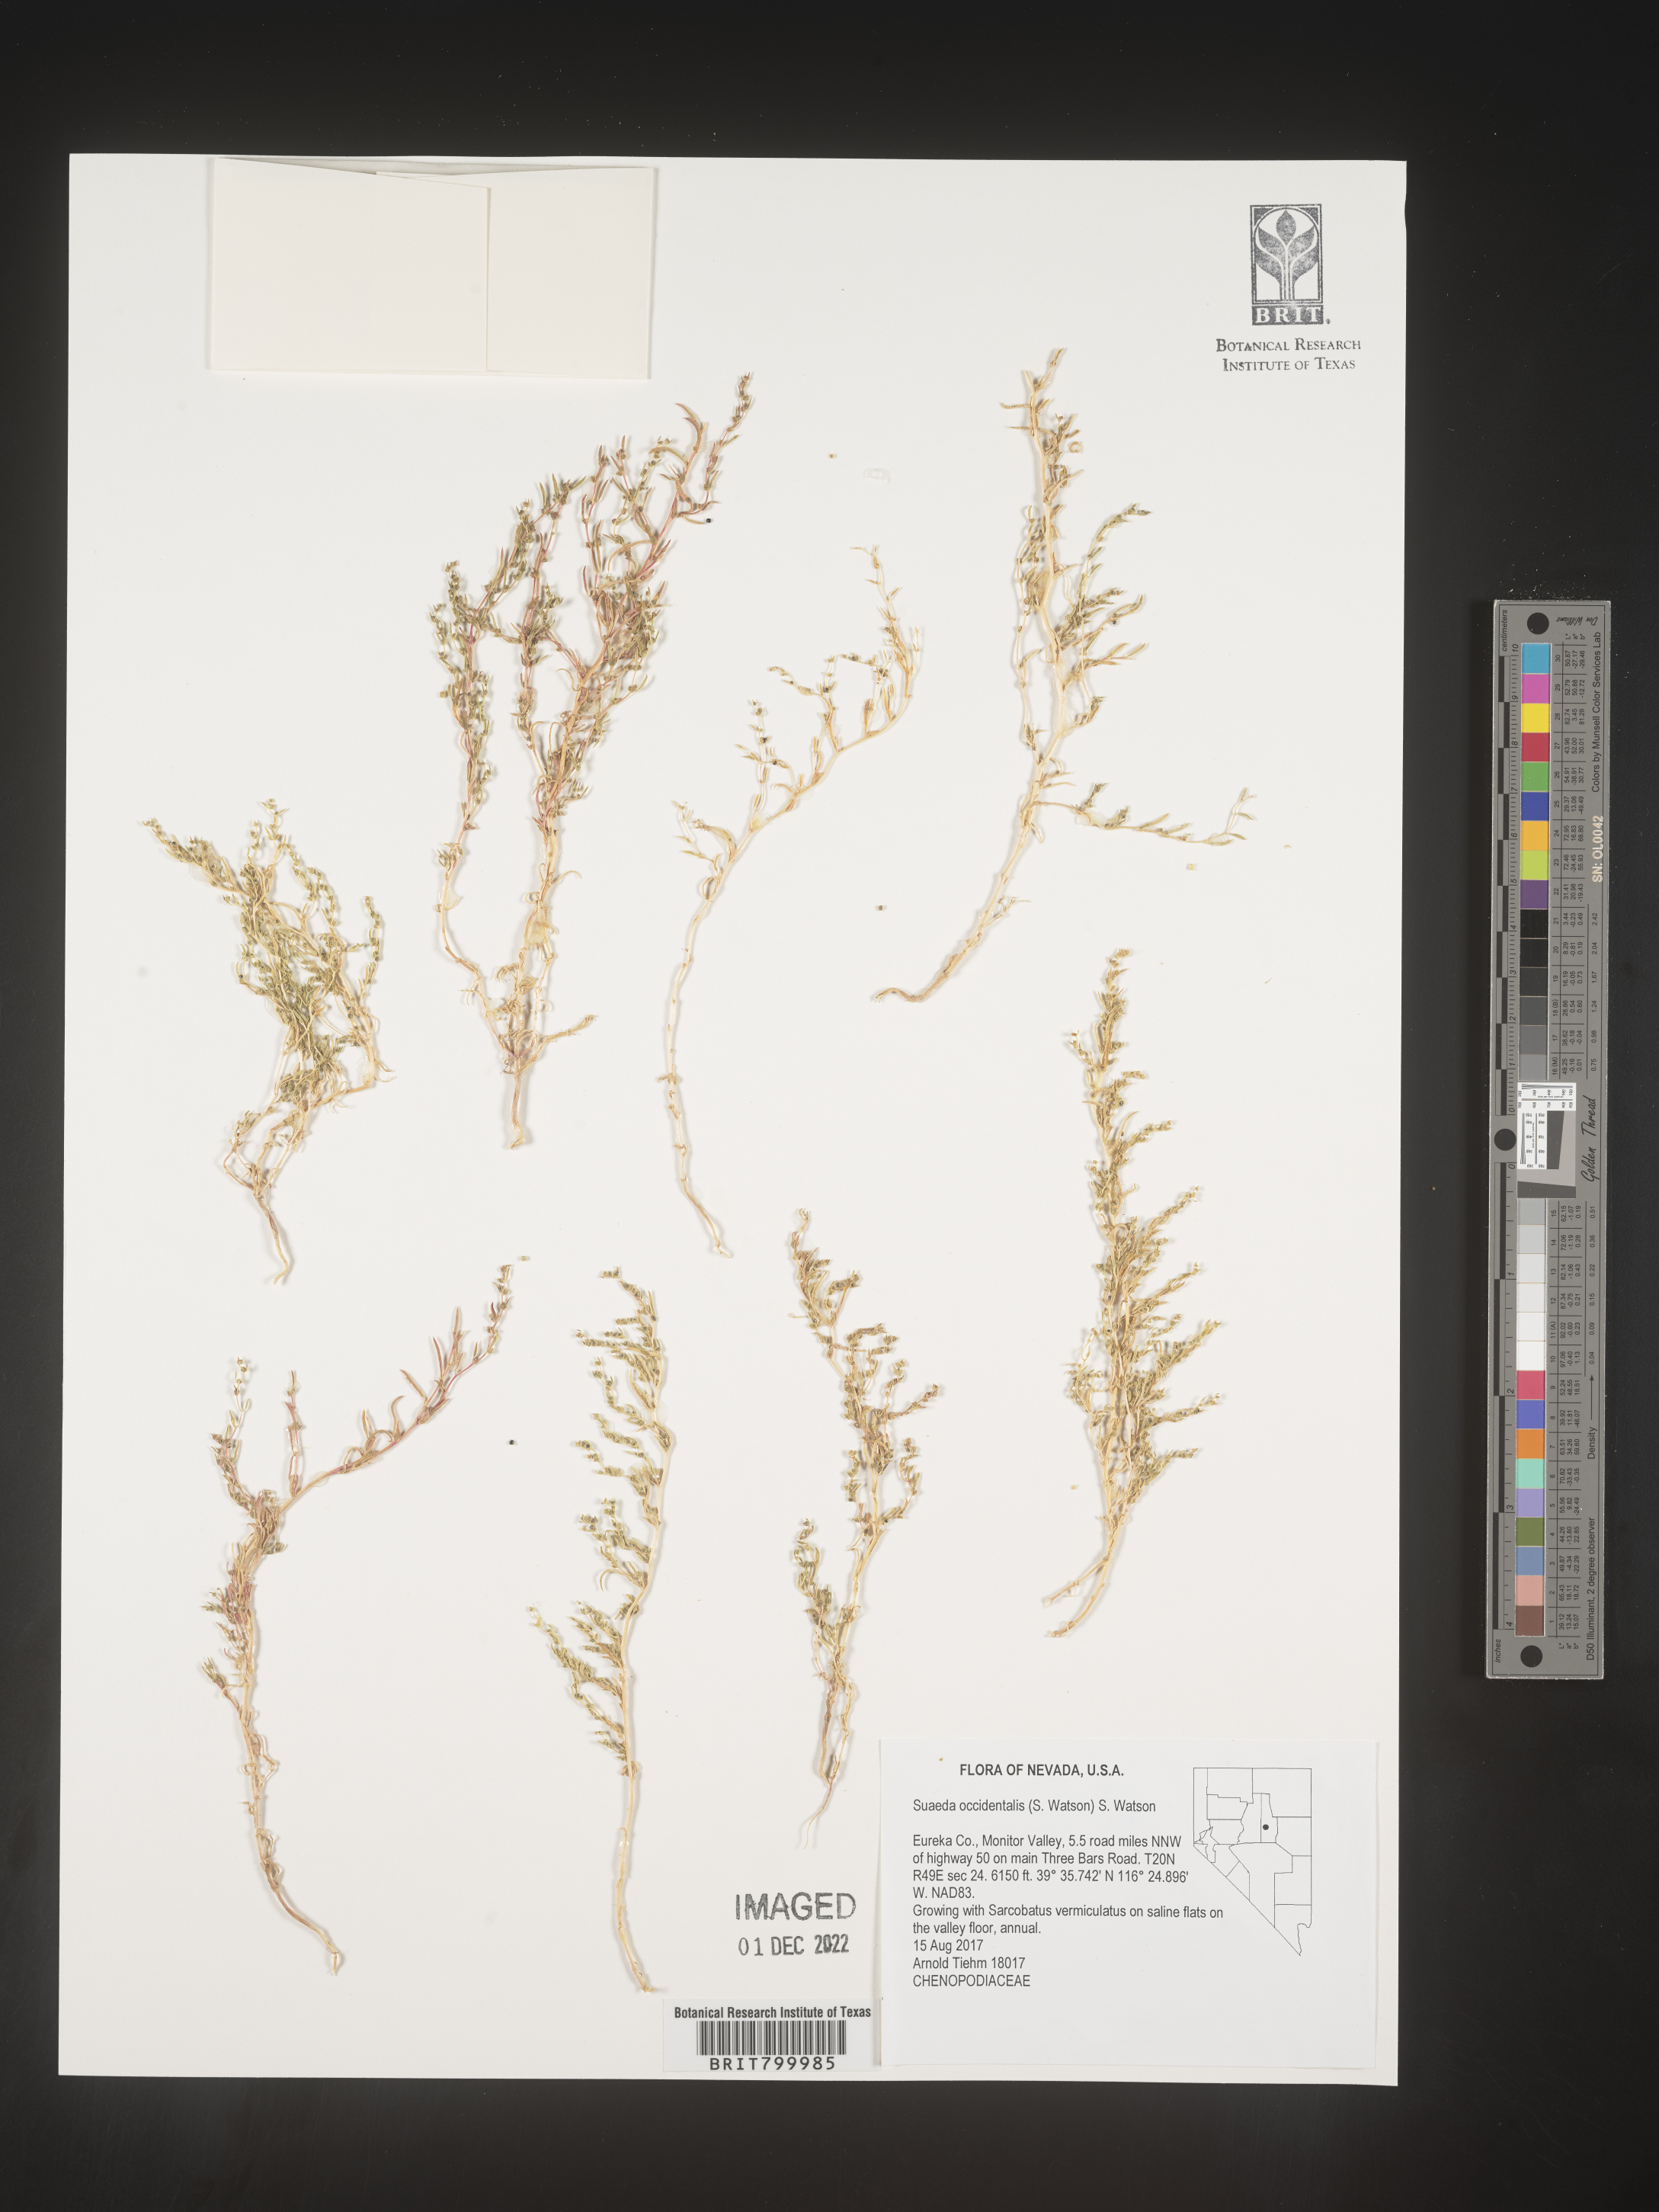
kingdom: Plantae
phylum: Tracheophyta
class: Magnoliopsida
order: Caryophyllales
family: Amaranthaceae
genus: Suaeda
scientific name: Suaeda
